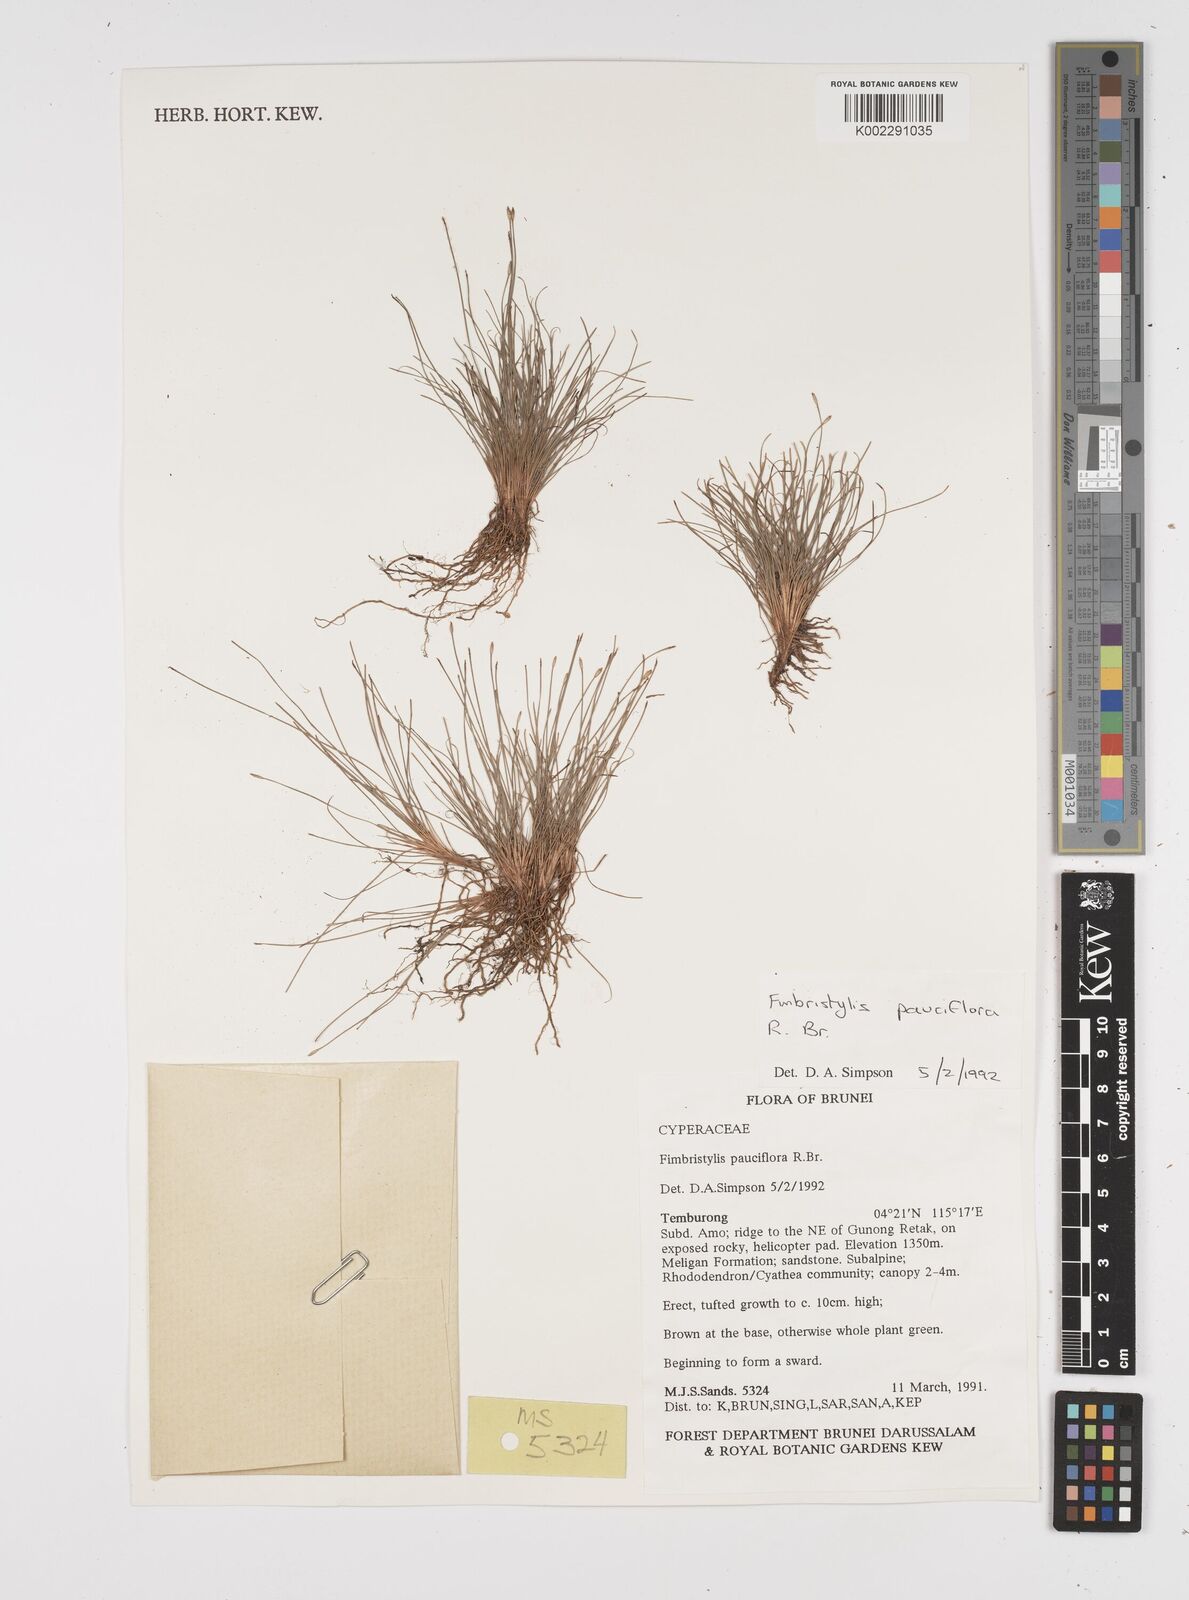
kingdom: Plantae
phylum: Tracheophyta
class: Liliopsida
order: Poales
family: Cyperaceae
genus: Fimbristylis
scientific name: Fimbristylis pauciflora
